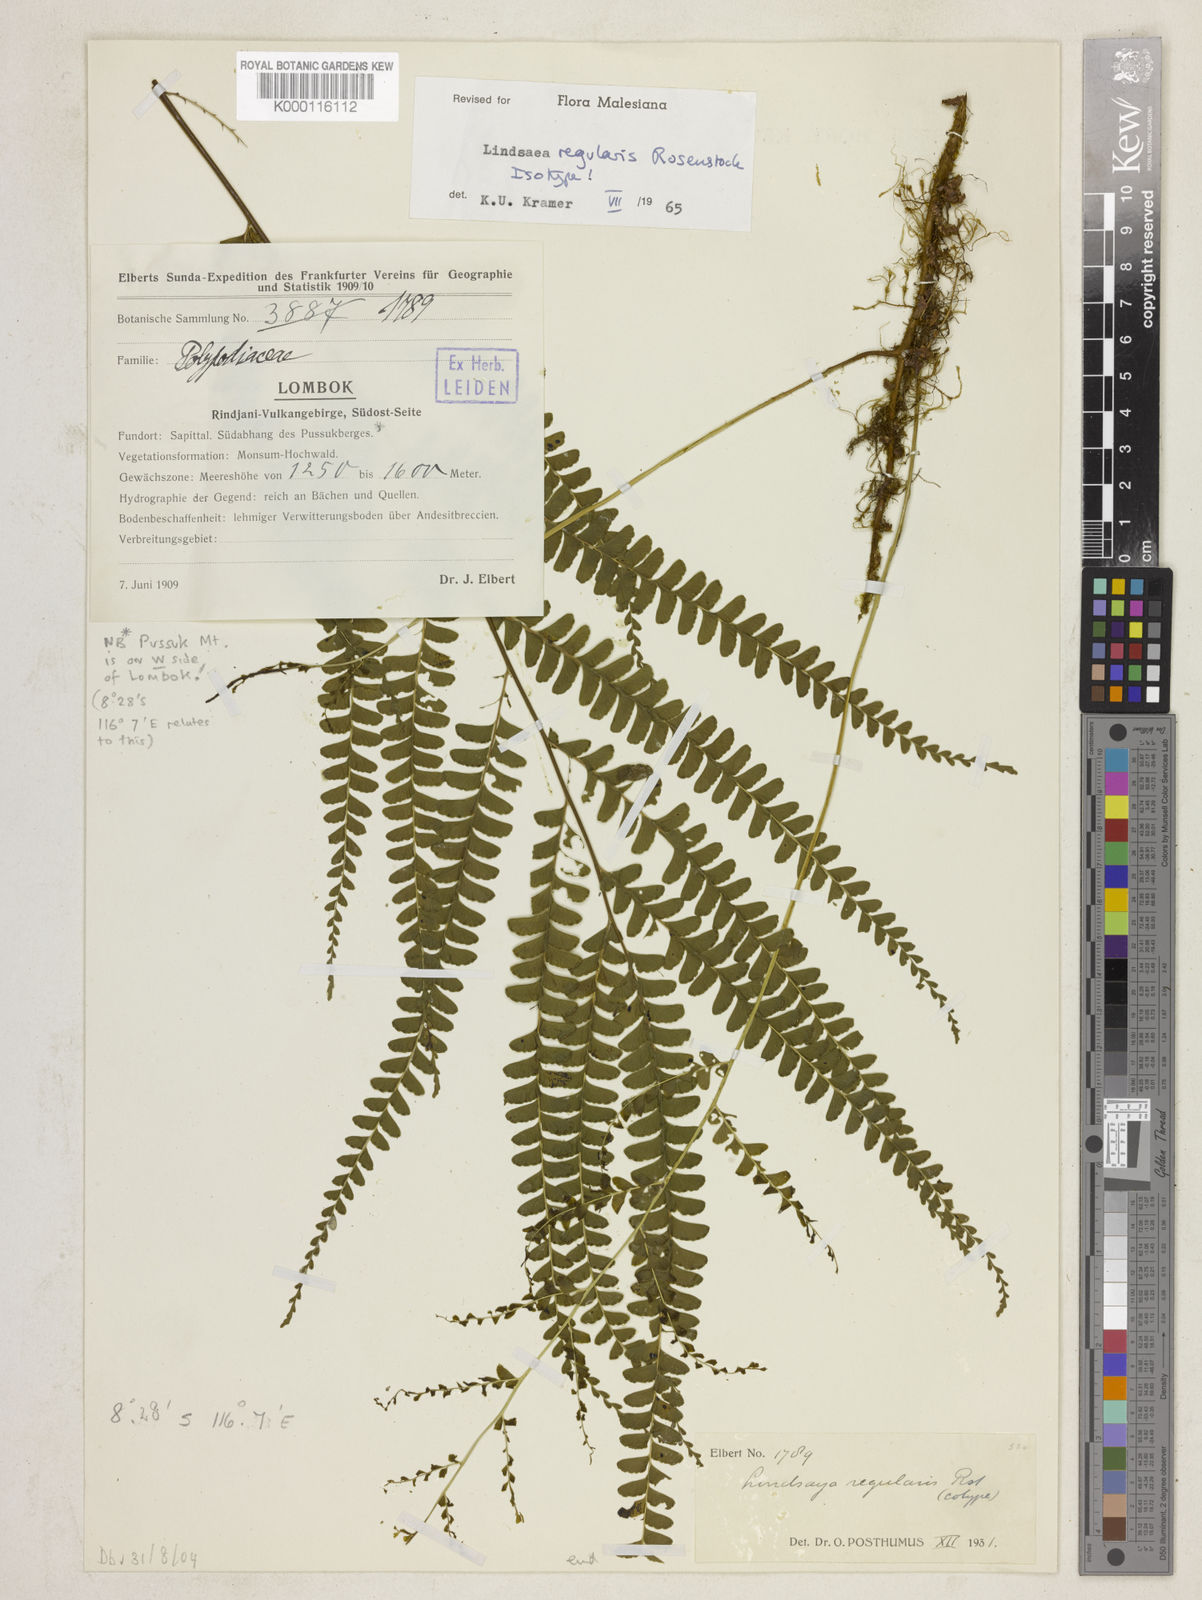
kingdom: Plantae
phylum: Tracheophyta
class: Polypodiopsida
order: Polypodiales
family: Lindsaeaceae
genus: Lindsaea
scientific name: Lindsaea regularis
